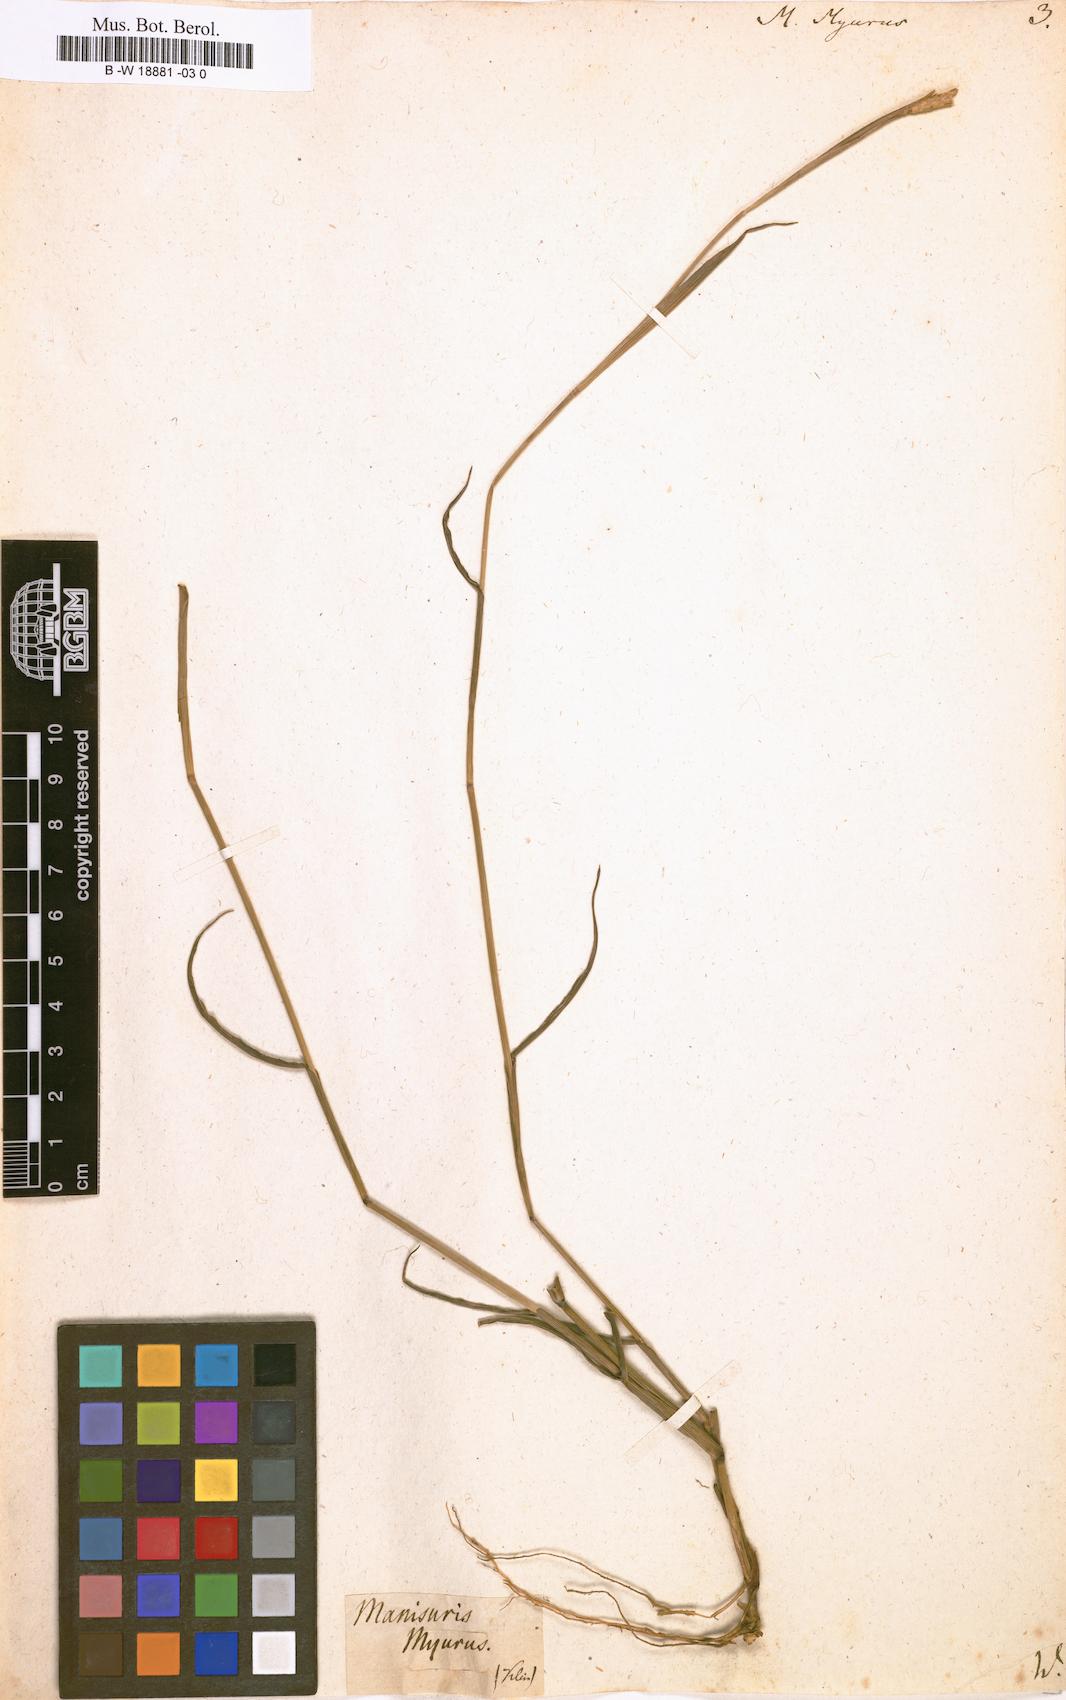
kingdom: Plantae
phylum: Tracheophyta
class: Liliopsida
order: Poales
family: Poaceae
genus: Manisuris
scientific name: Manisuris myurus
